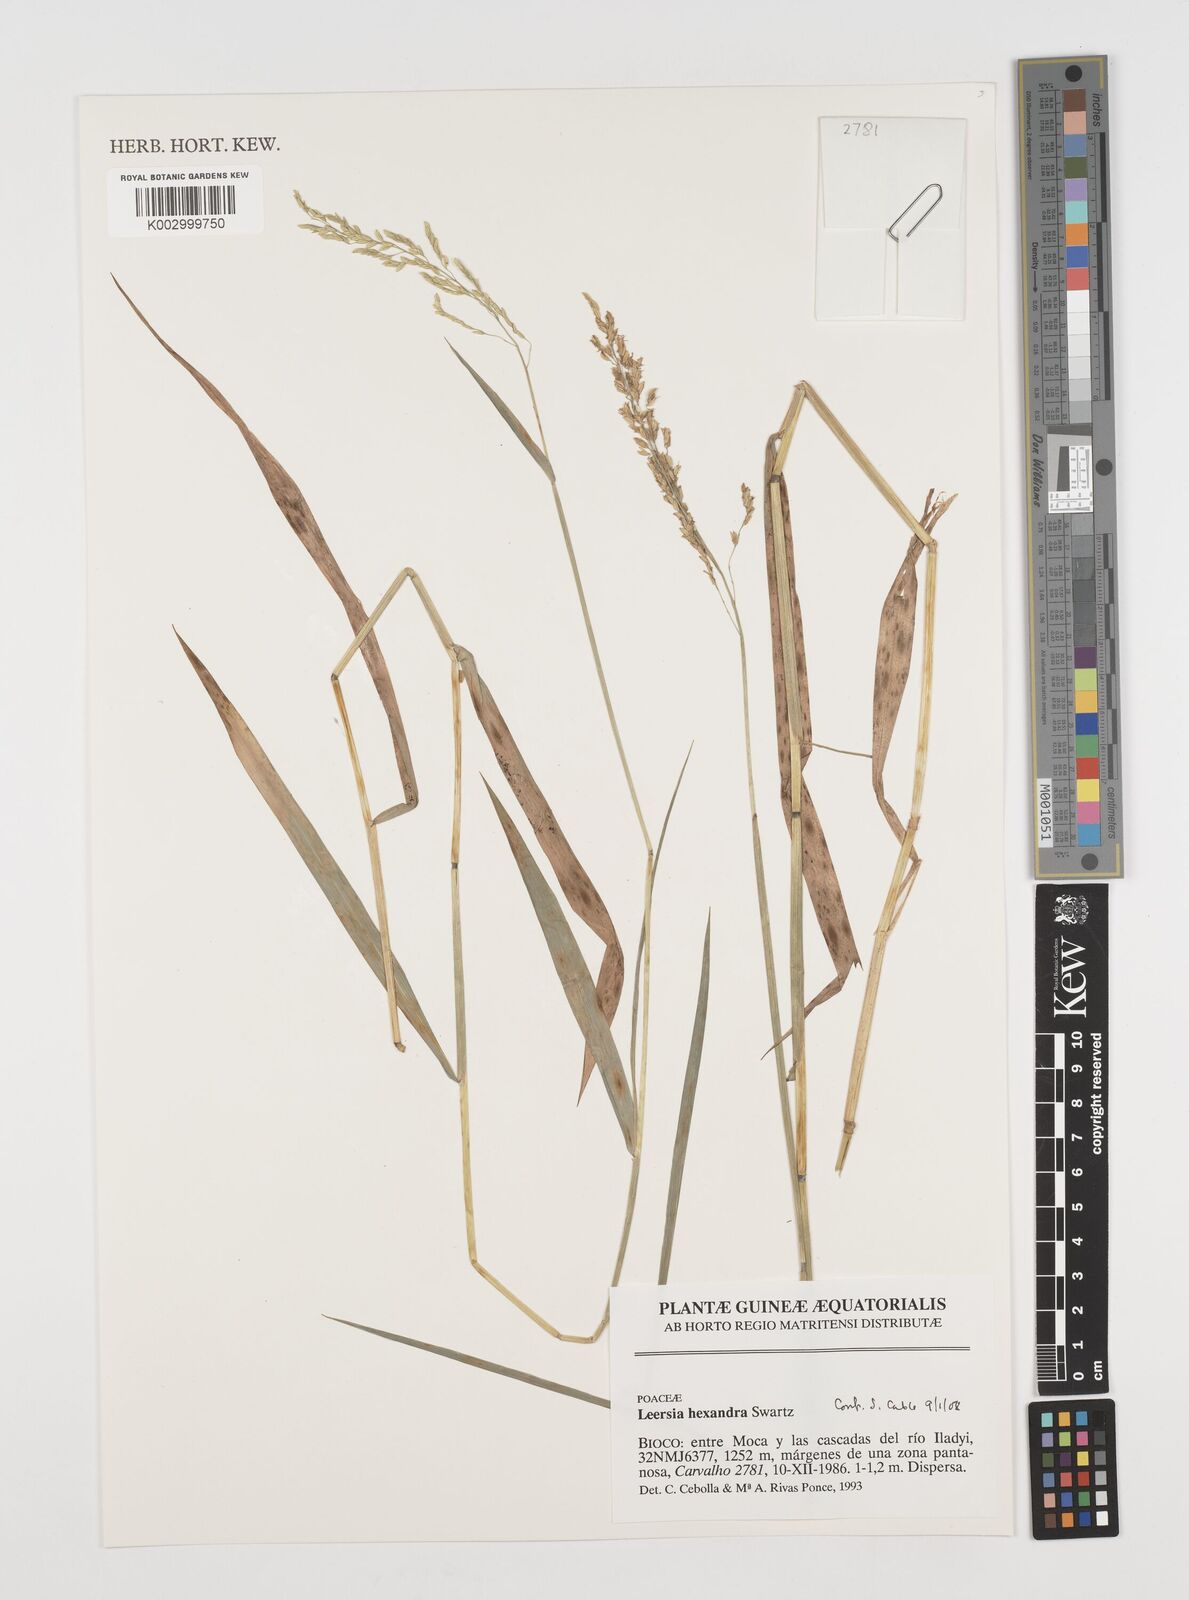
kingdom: Plantae
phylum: Tracheophyta
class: Liliopsida
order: Poales
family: Poaceae
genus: Leersia
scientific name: Leersia hexandra
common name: Southern cut grass
